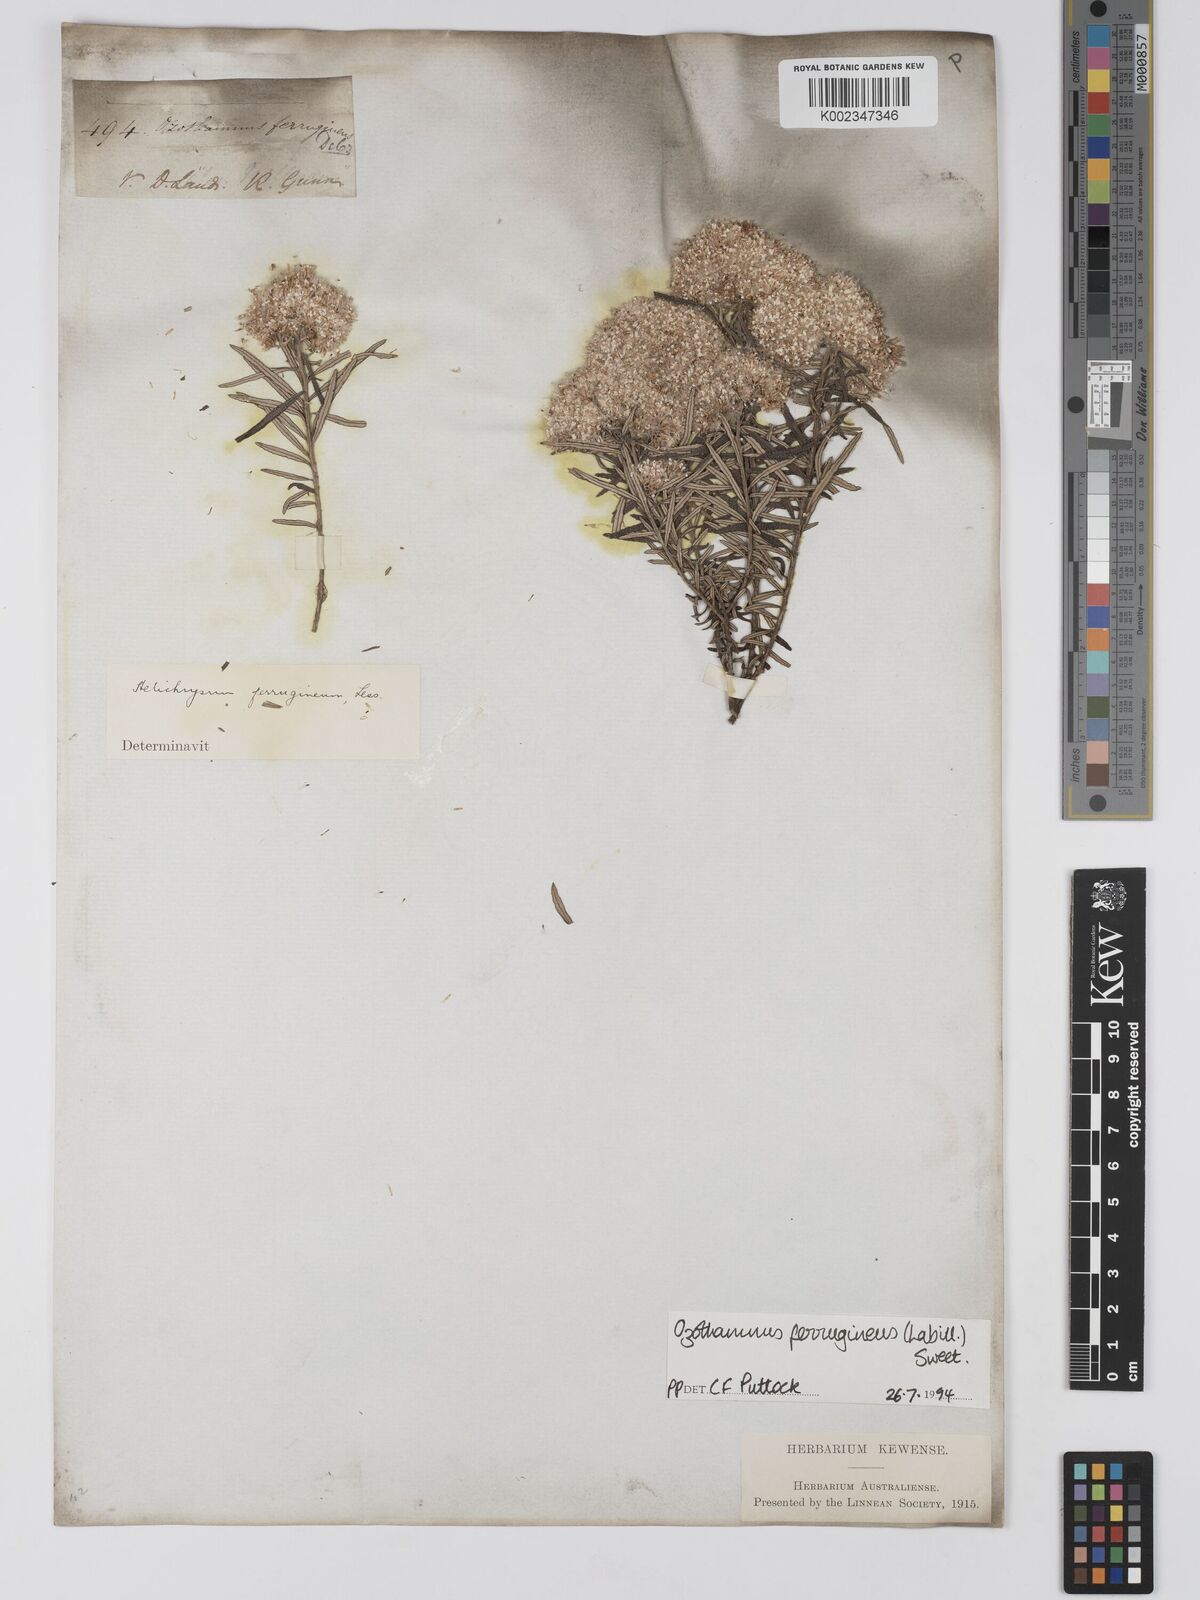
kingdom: Plantae
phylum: Tracheophyta
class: Magnoliopsida
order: Asterales
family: Asteraceae
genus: Ozothamnus
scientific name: Ozothamnus ferrugineus
